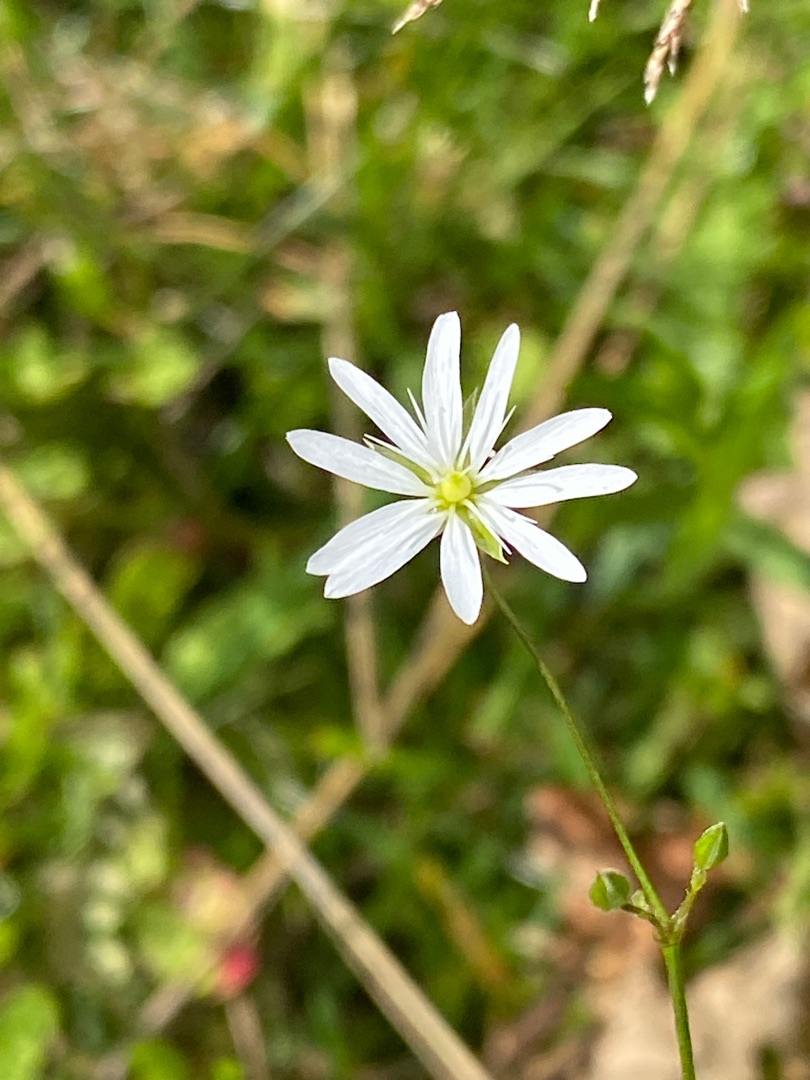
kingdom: Plantae
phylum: Tracheophyta
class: Magnoliopsida
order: Caryophyllales
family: Caryophyllaceae
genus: Stellaria
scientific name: Stellaria graminea
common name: Græsbladet fladstjerne
